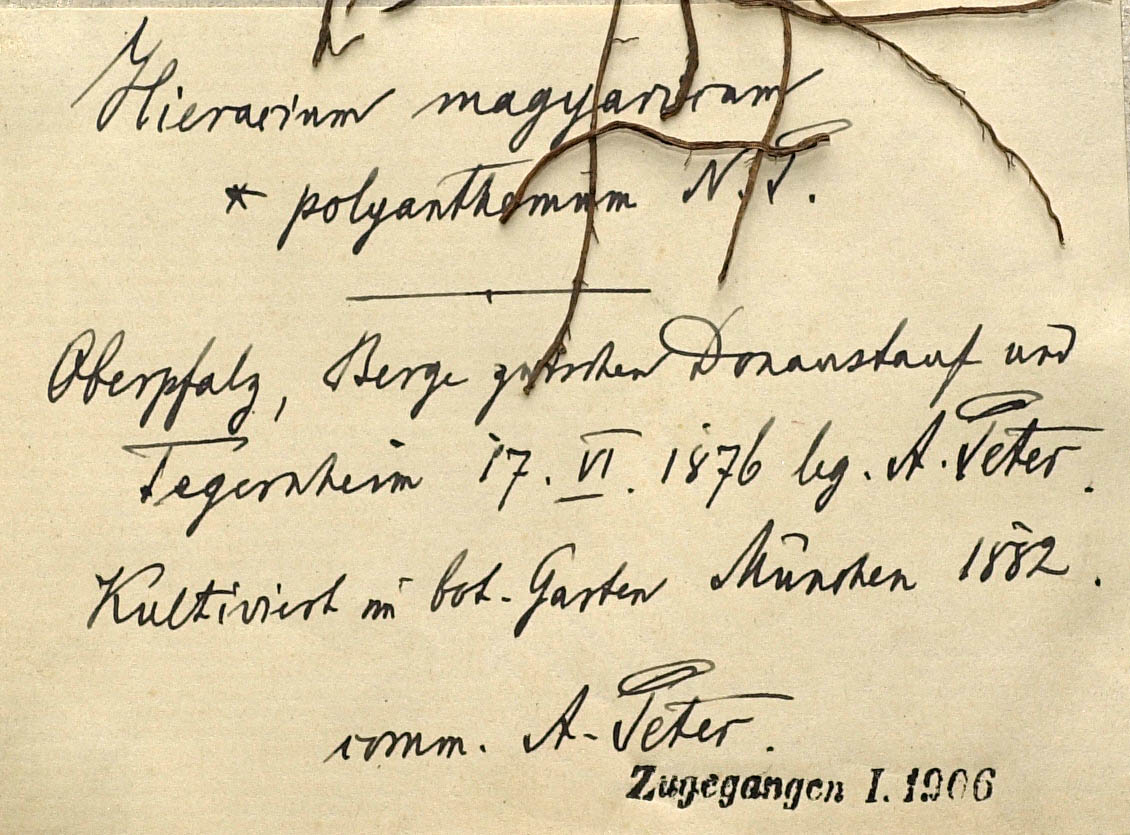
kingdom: Plantae
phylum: Tracheophyta
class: Magnoliopsida
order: Asterales
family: Asteraceae
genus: Pilosella
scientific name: Pilosella bauhini
